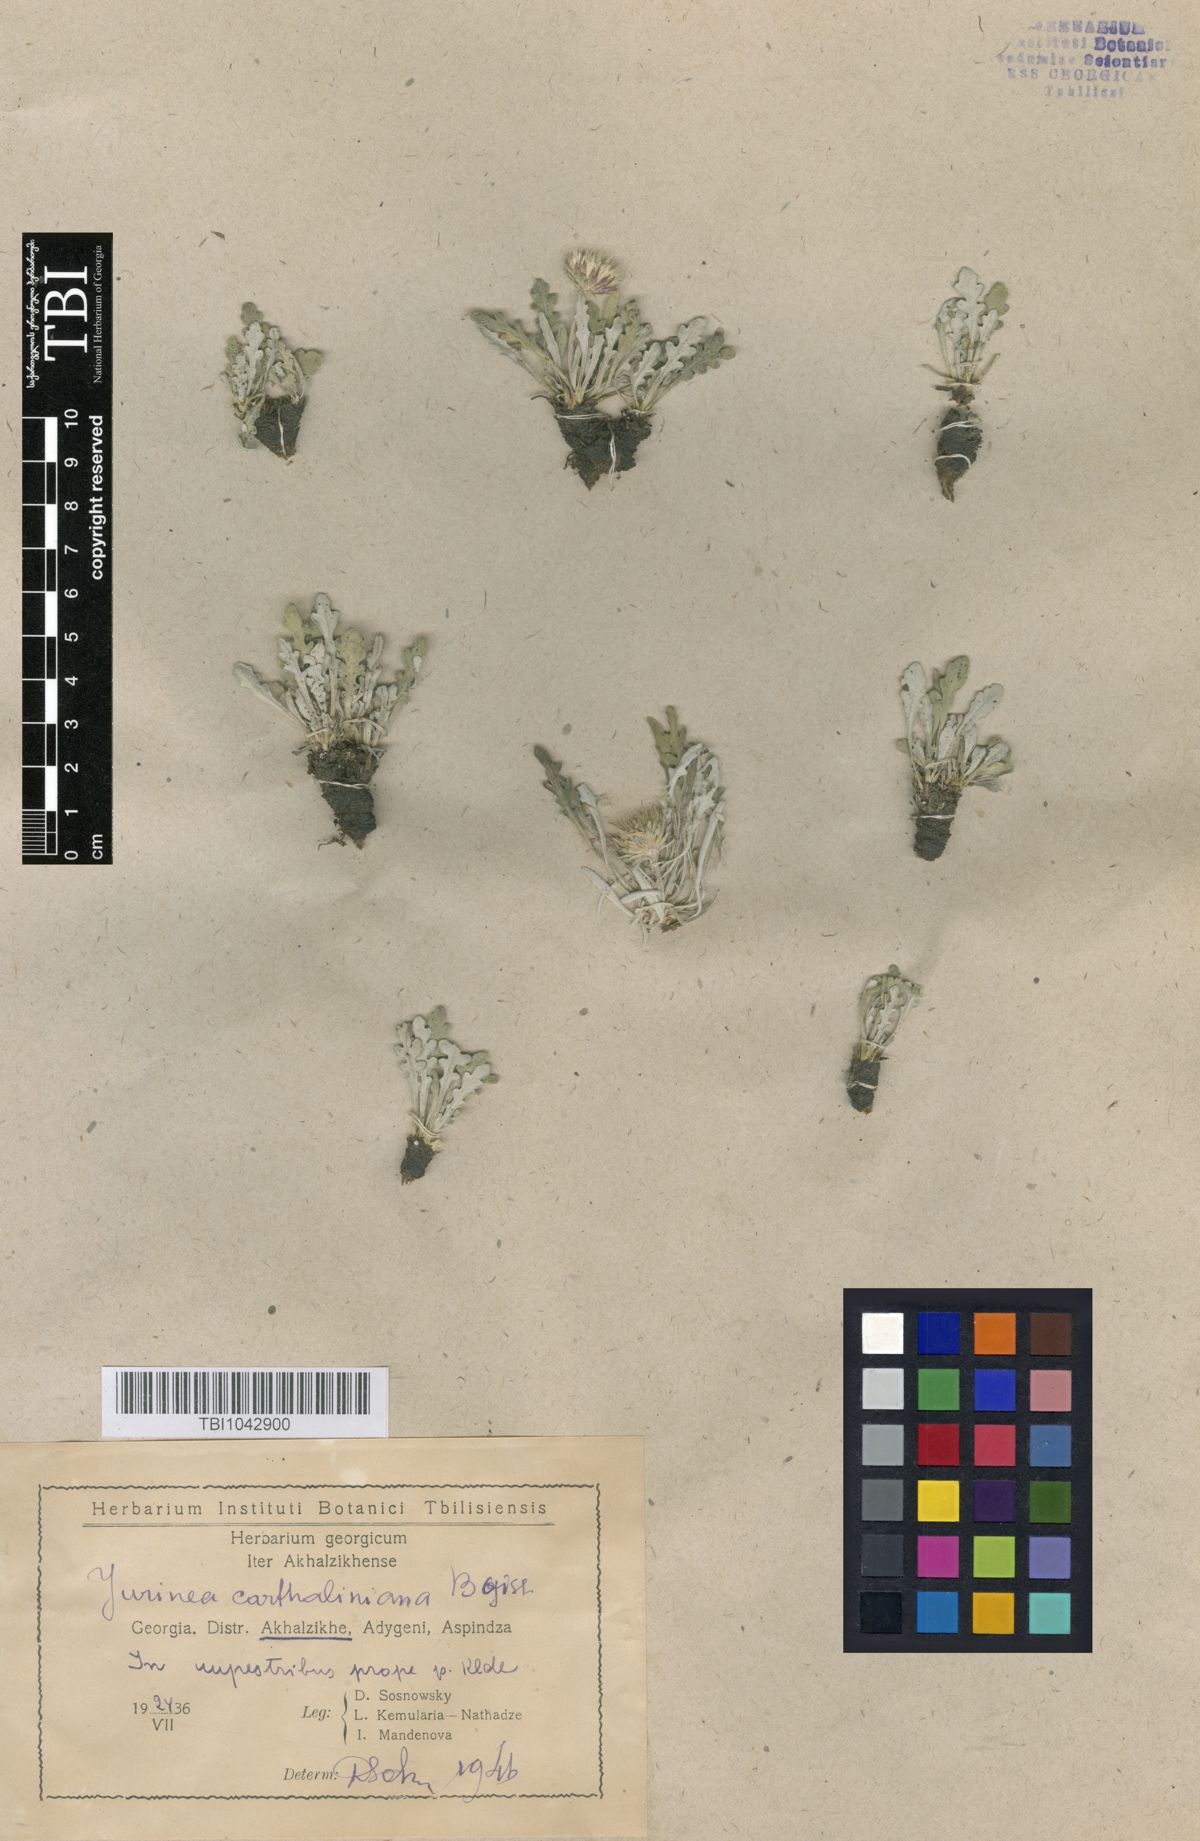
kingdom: Plantae
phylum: Tracheophyta
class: Magnoliopsida
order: Asterales
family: Asteraceae
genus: Jurinea
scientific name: Jurinea cartaliniana
